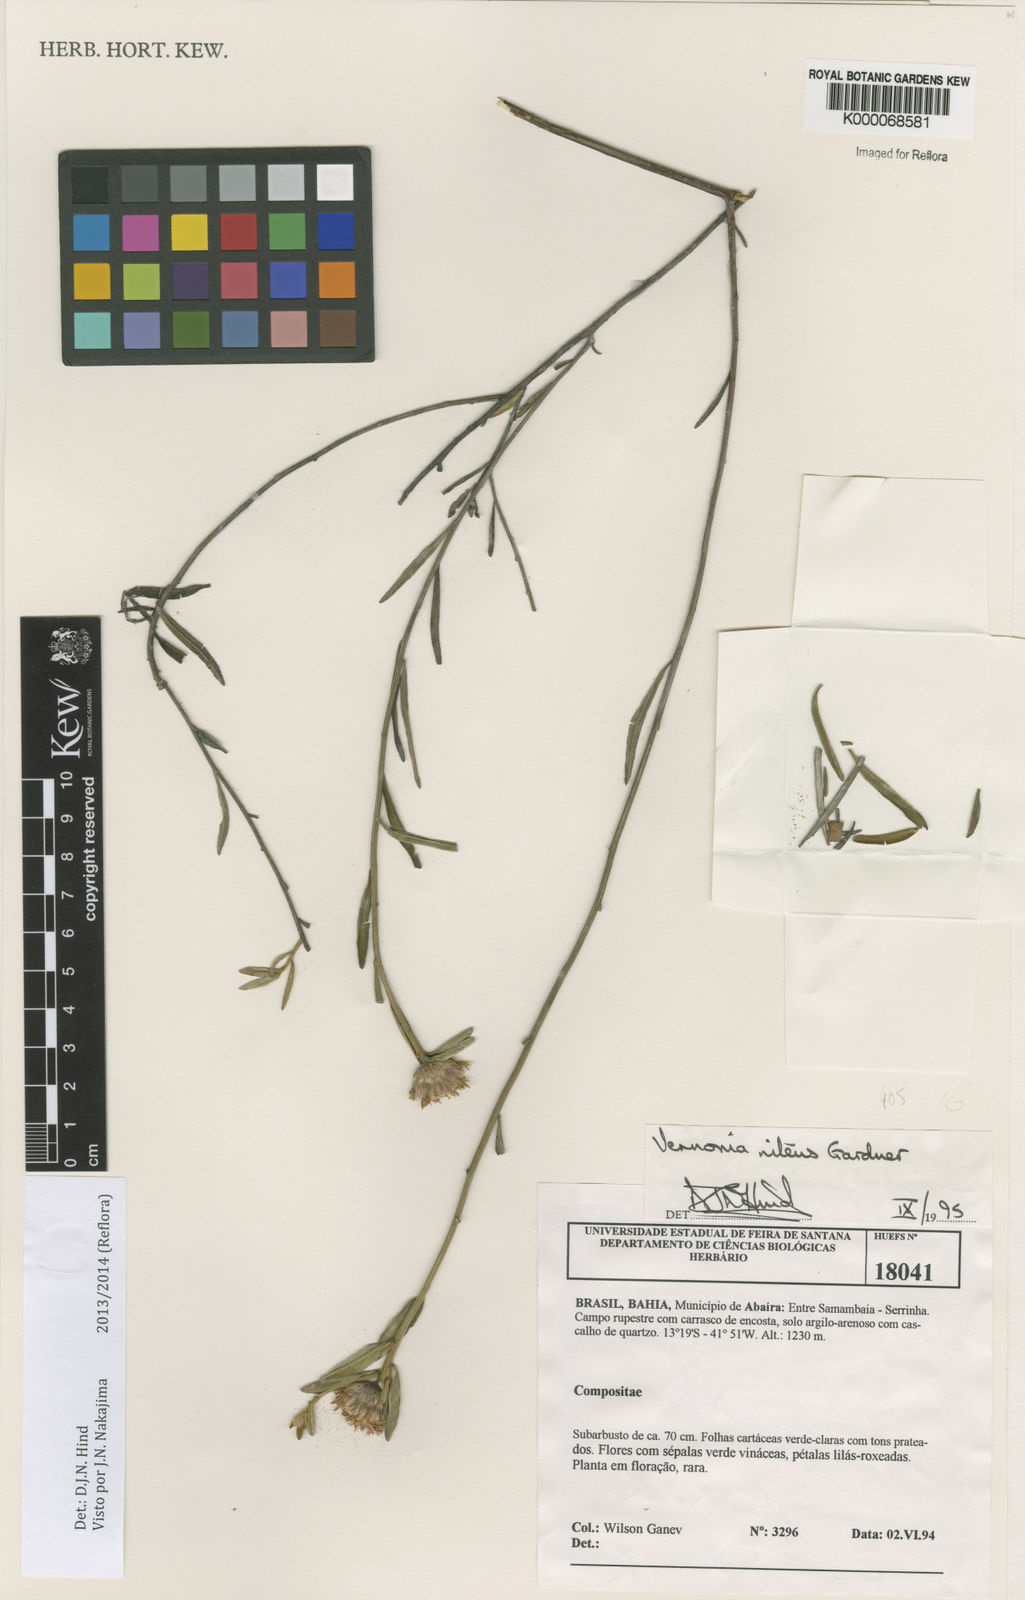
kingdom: Plantae
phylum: Tracheophyta
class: Magnoliopsida
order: Asterales
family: Asteraceae
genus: Lepidaploa
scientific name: Lepidaploa nitens
